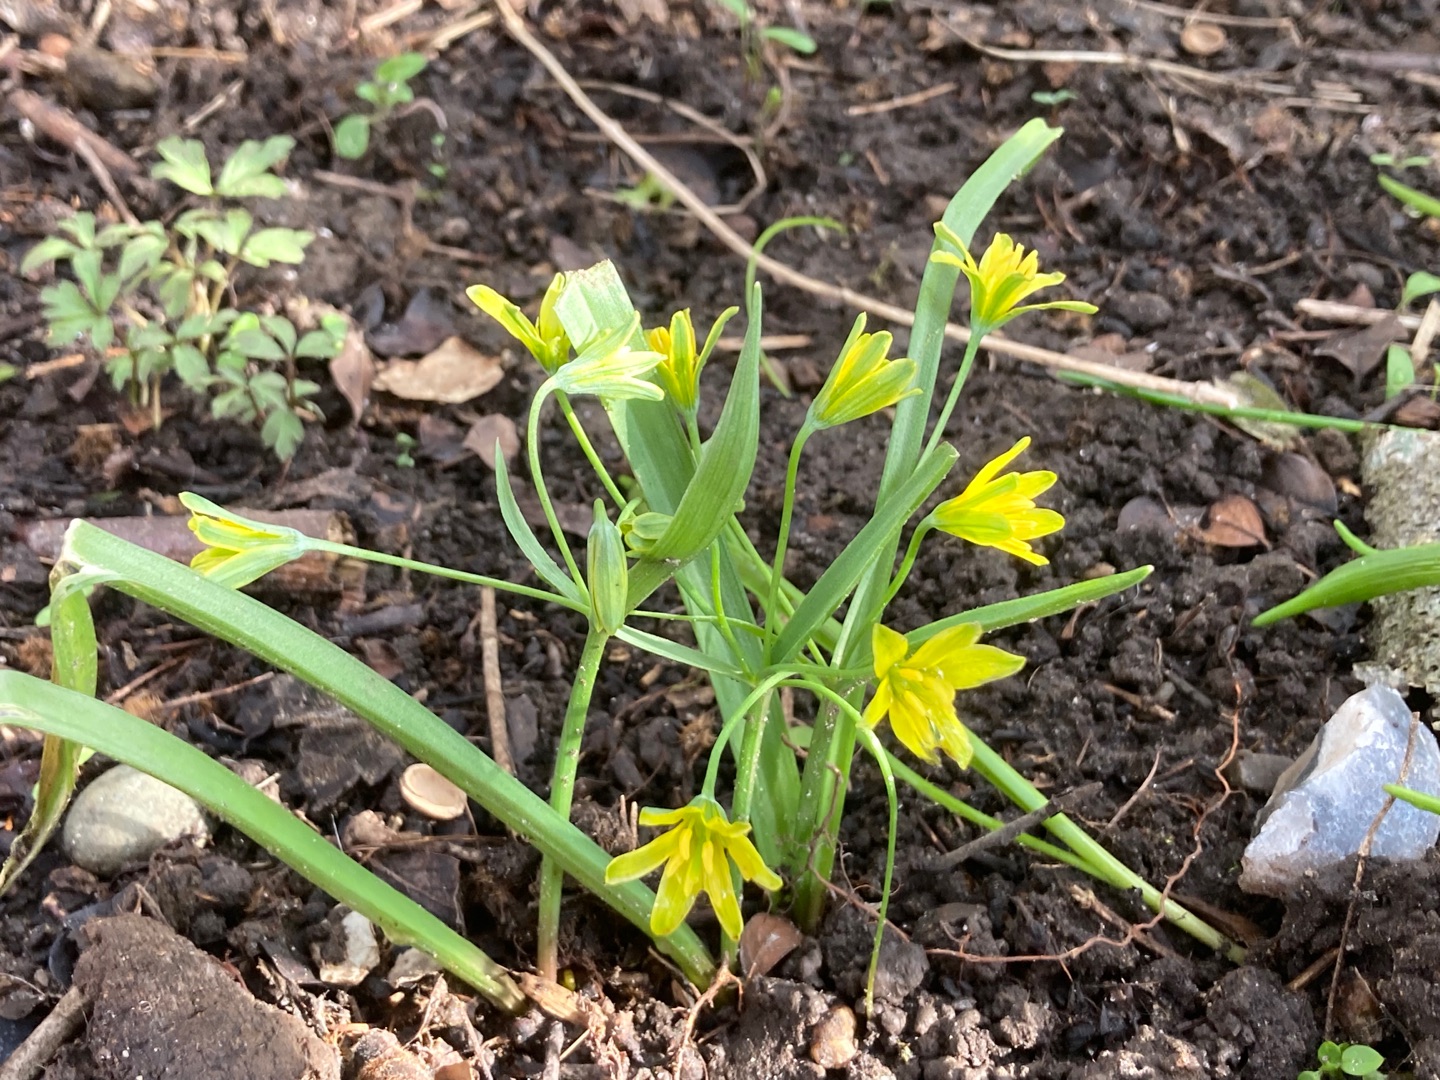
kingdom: Plantae
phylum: Tracheophyta
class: Liliopsida
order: Liliales
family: Liliaceae
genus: Gagea
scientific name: Gagea lutea
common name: Almindelig guldstjerne
